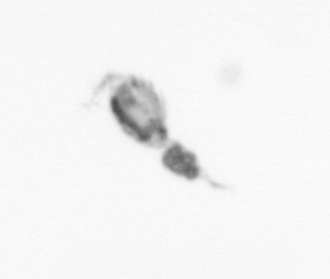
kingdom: Animalia
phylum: Arthropoda
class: Copepoda
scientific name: Copepoda
